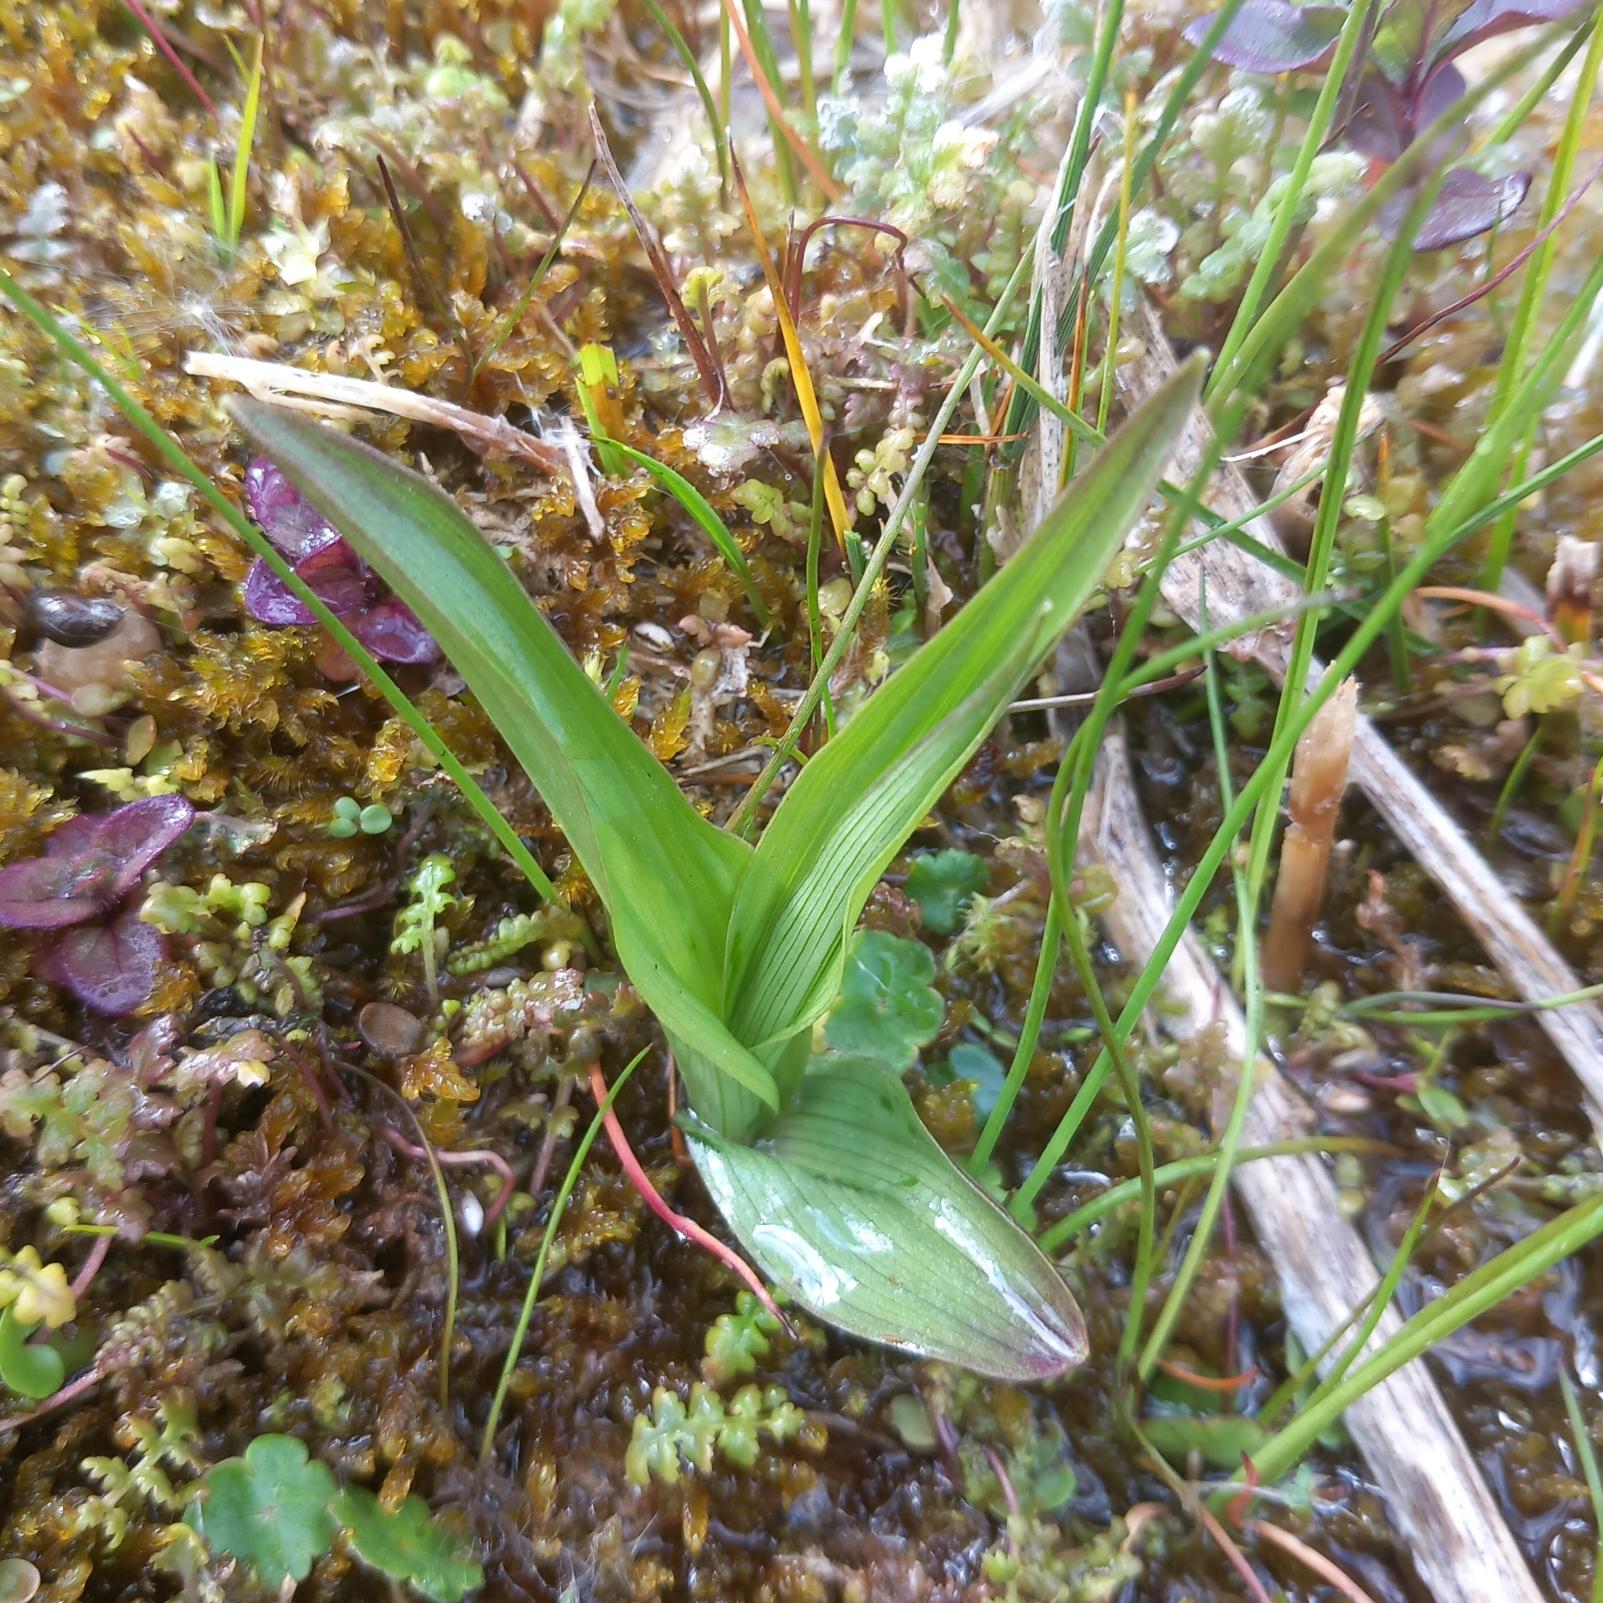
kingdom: Plantae
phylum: Tracheophyta
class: Liliopsida
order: Asparagales
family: Orchidaceae
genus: Epipactis
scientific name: Epipactis palustris
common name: Sump-hullæbe
